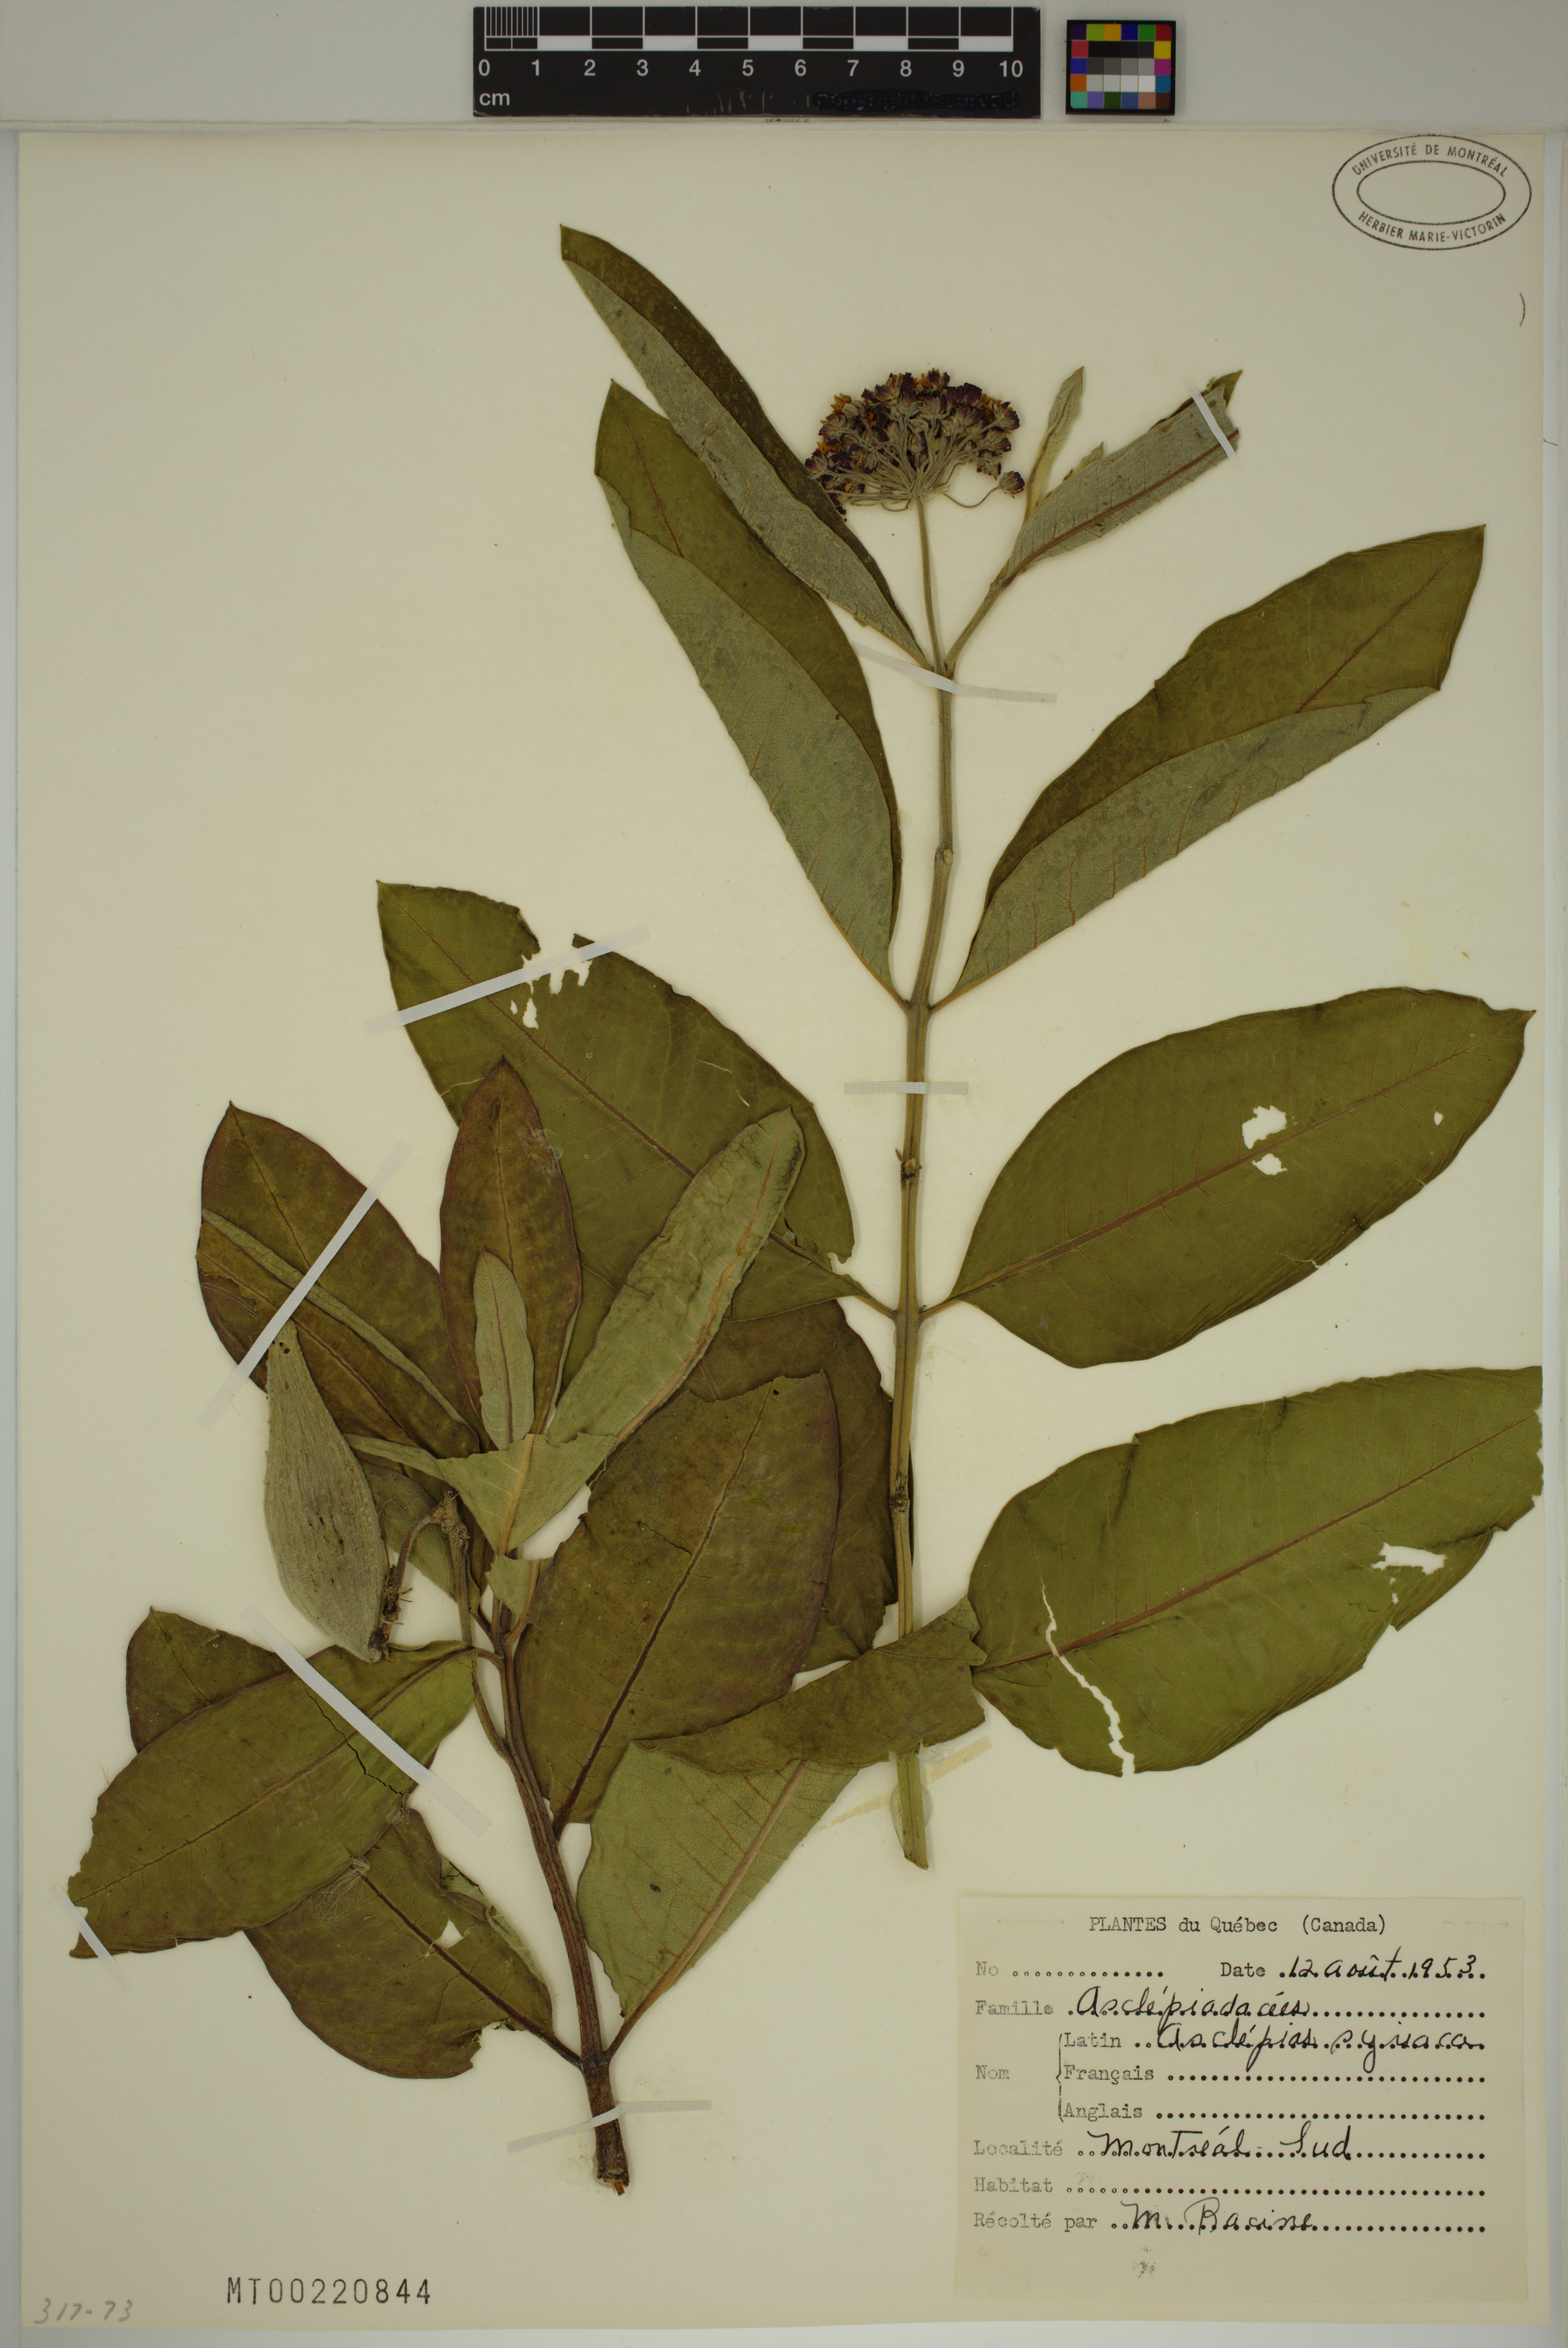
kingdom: Plantae
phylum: Tracheophyta
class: Magnoliopsida
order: Gentianales
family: Apocynaceae
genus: Asclepias
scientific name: Asclepias syriaca
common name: Common milkweed
